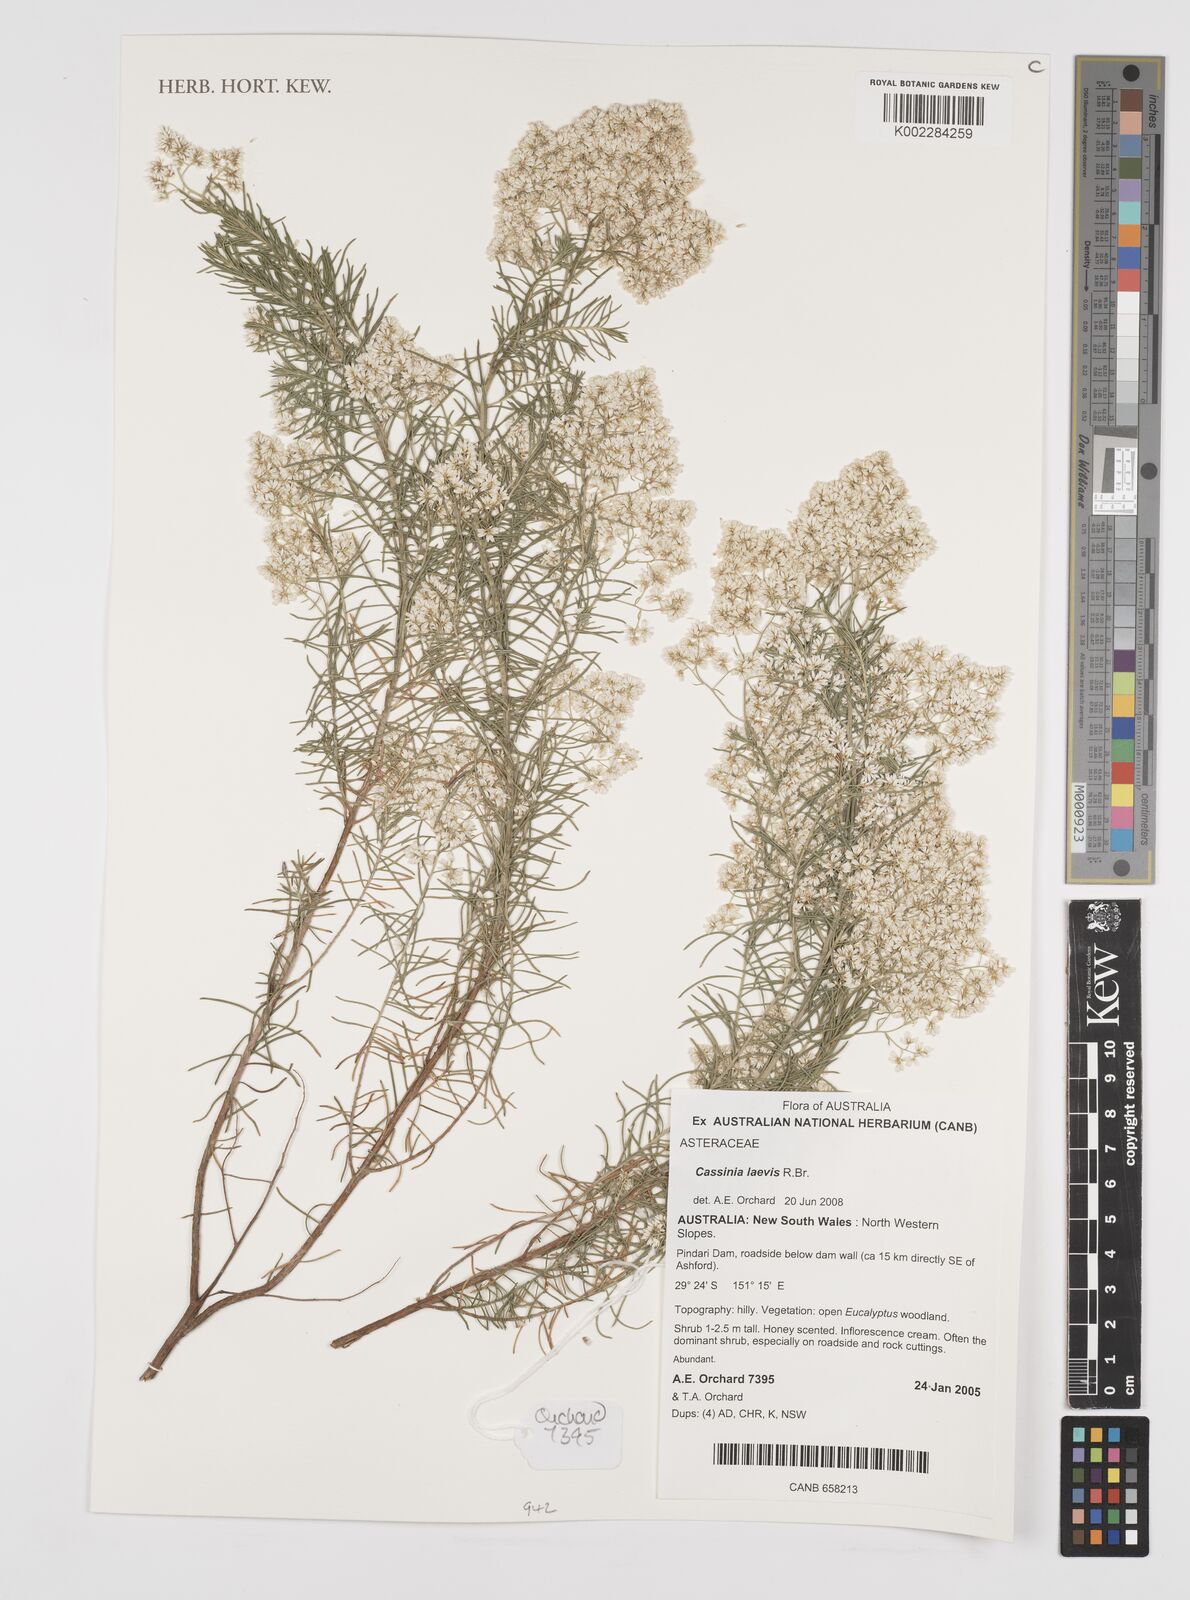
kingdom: Plantae
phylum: Tracheophyta
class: Magnoliopsida
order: Asterales
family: Asteraceae
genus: Cassinia
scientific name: Cassinia laevis
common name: Coughbush
